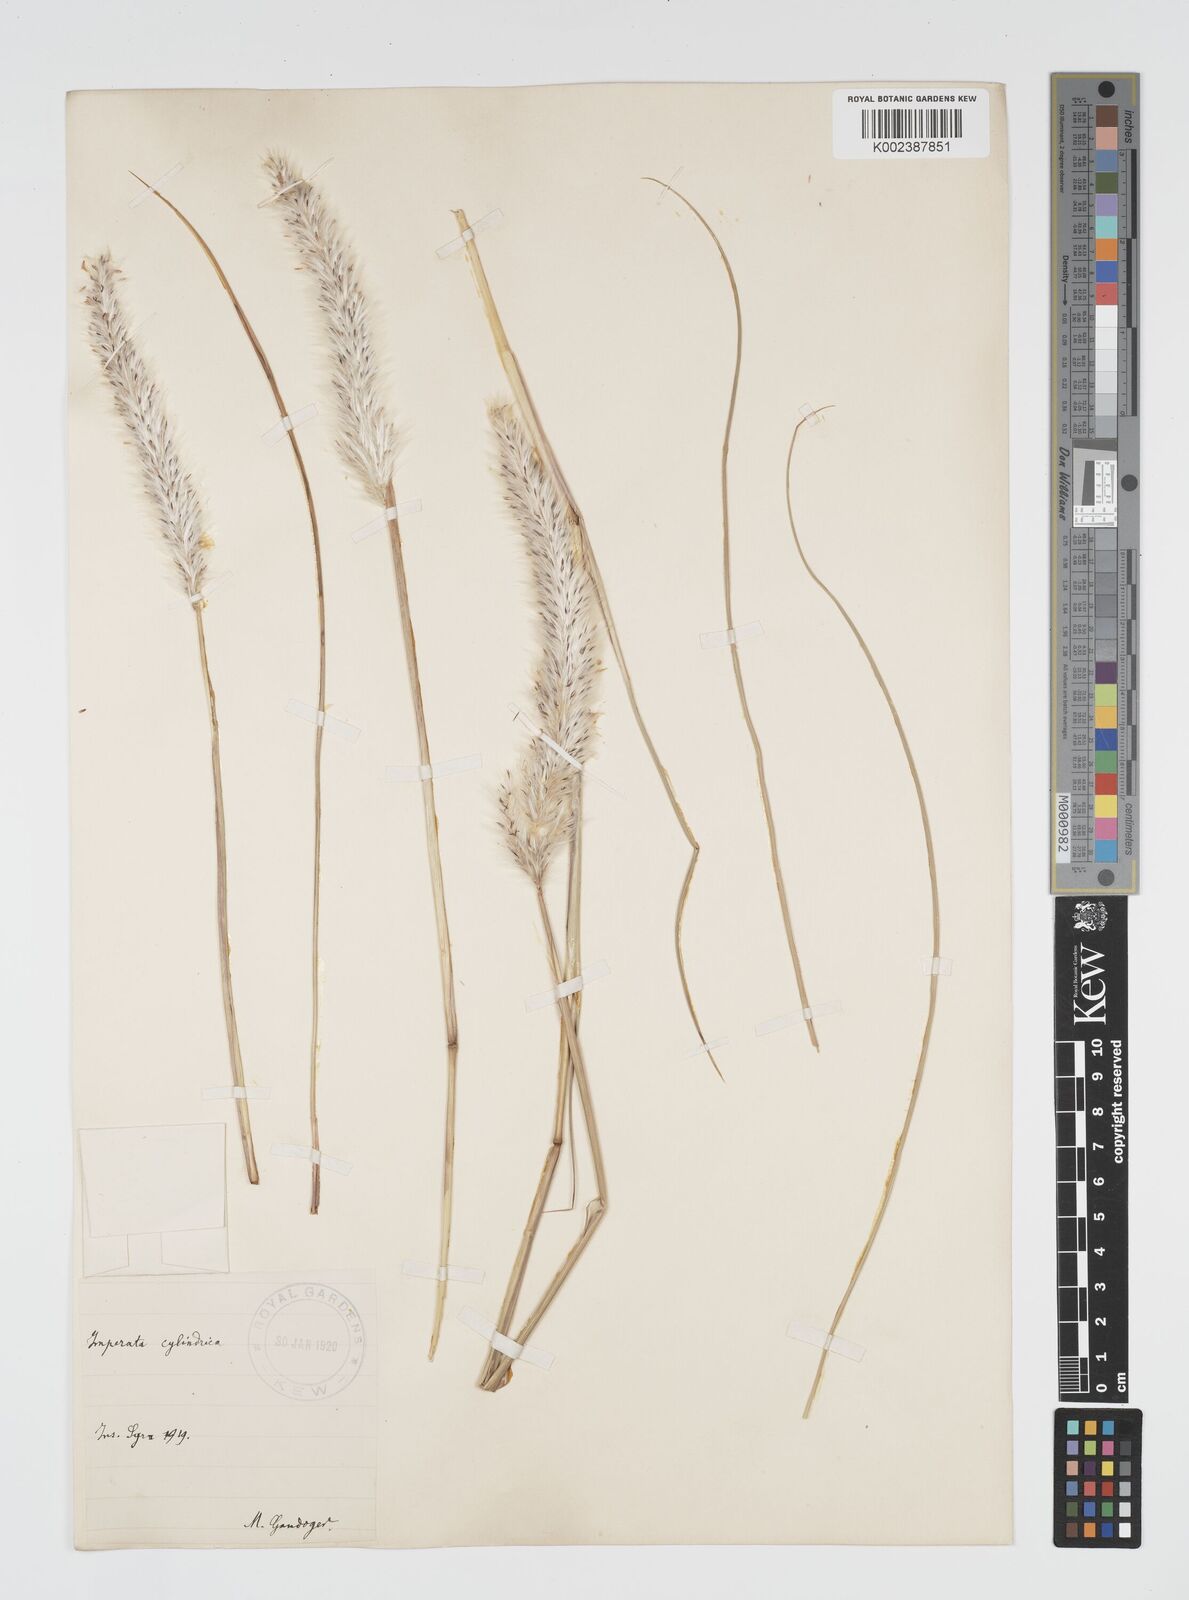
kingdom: Plantae
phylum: Tracheophyta
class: Liliopsida
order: Poales
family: Poaceae
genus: Imperata
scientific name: Imperata cylindrica
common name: Cogongrass
